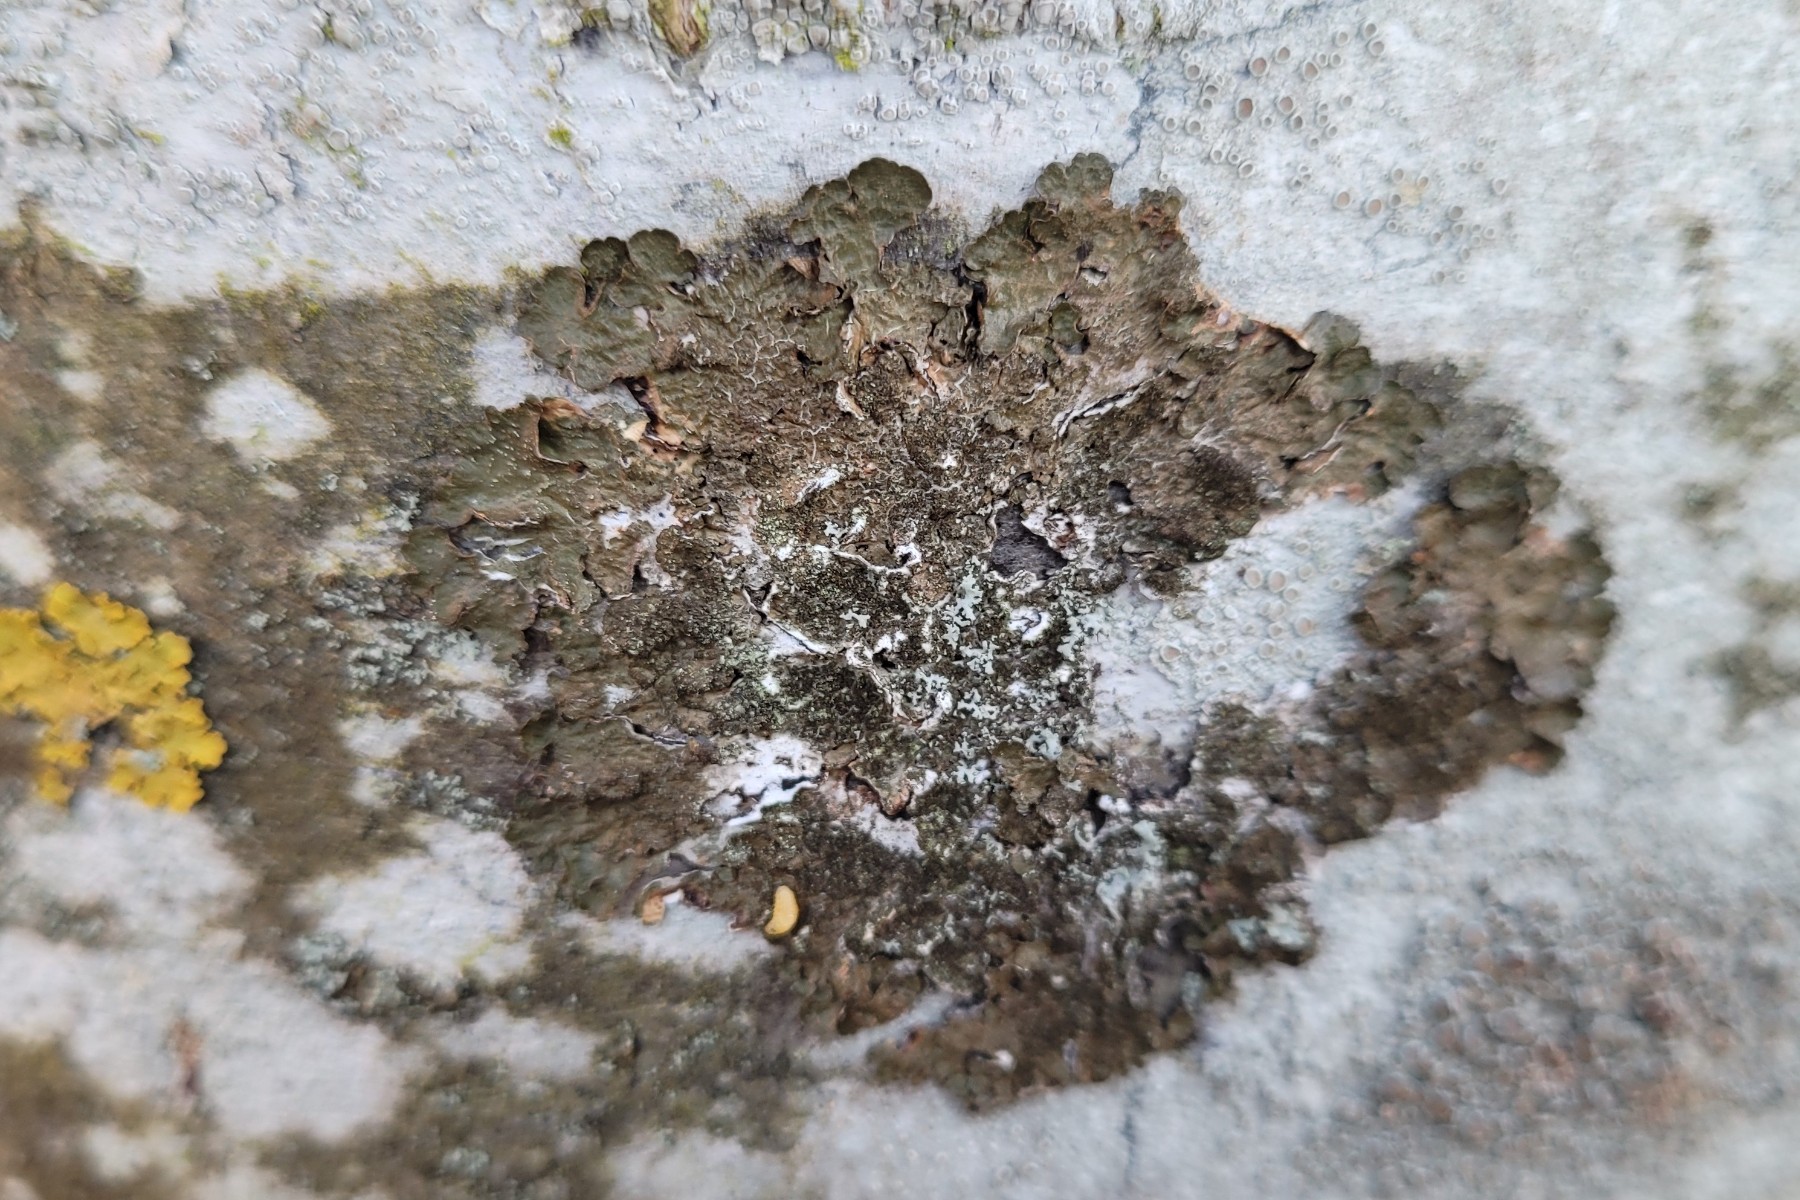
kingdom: Fungi
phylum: Ascomycota
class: Lecanoromycetes
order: Lecanorales
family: Parmeliaceae
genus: Melanelixia
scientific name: Melanelixia subaurifera
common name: guldpudret skållav
